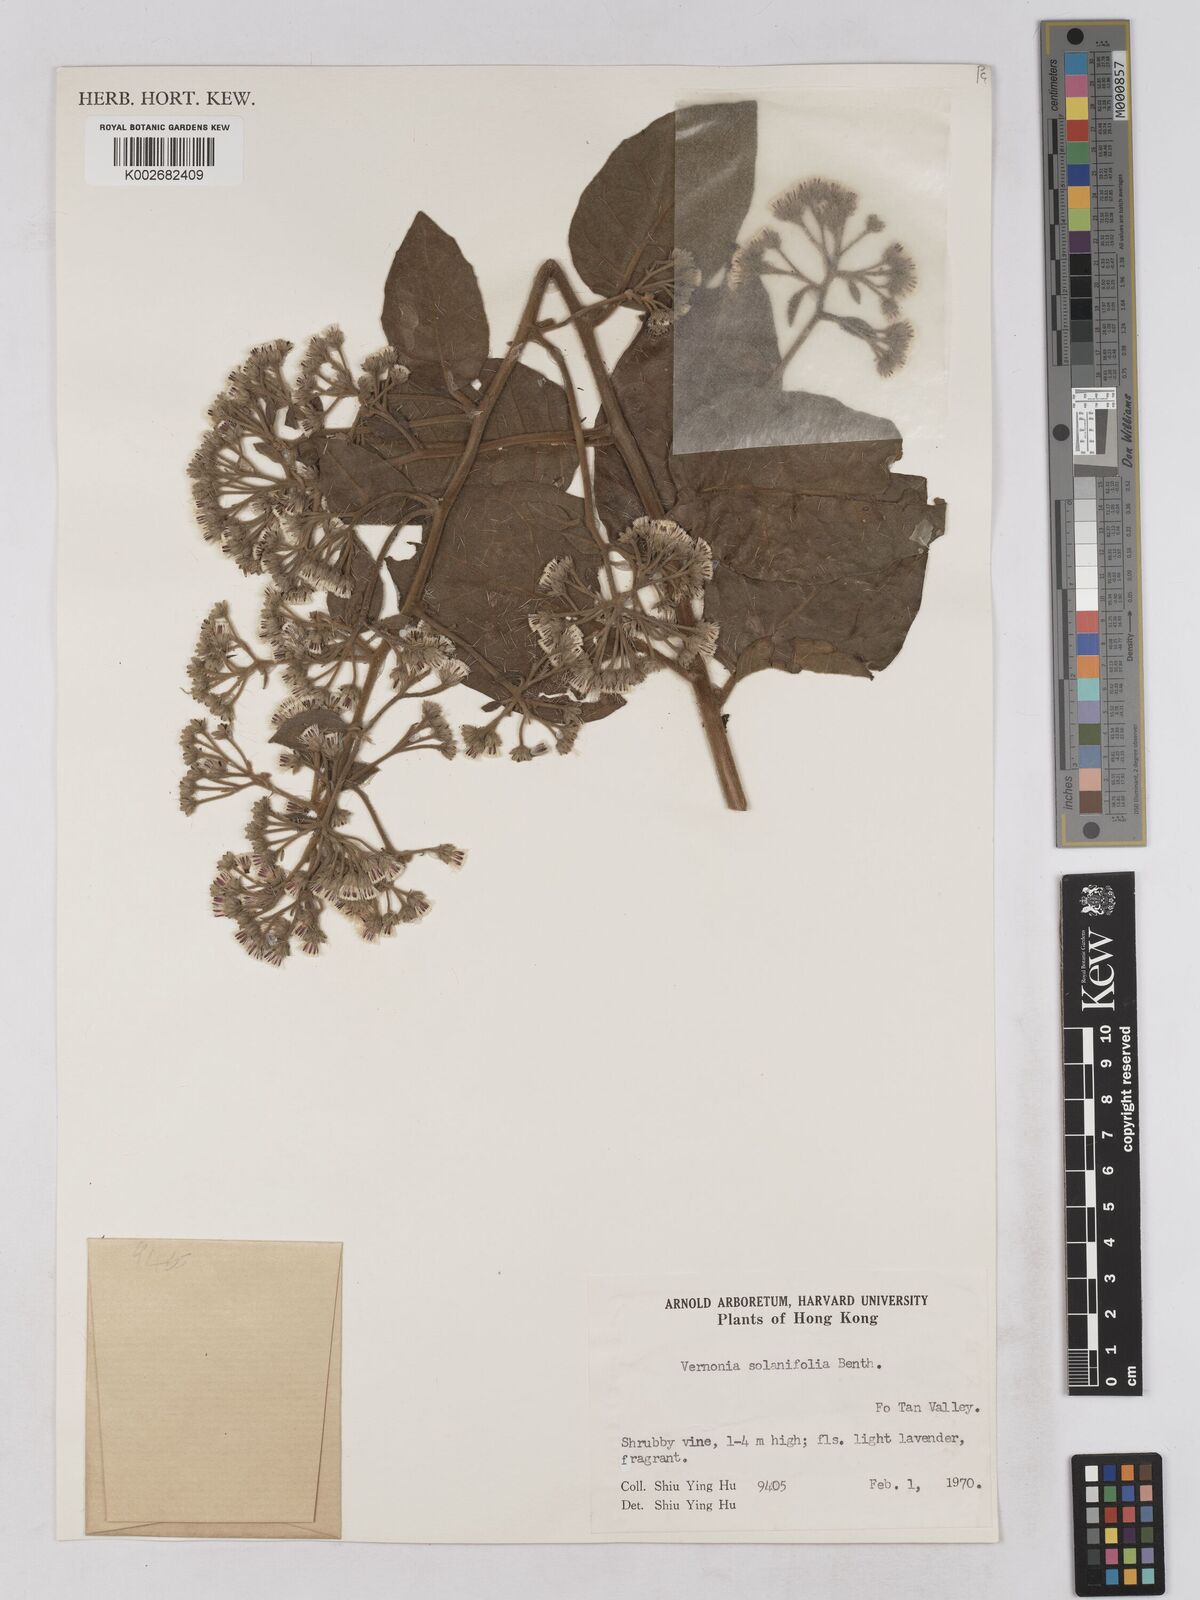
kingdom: Plantae
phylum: Tracheophyta
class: Magnoliopsida
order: Asterales
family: Asteraceae
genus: Strobocalyx
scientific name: Strobocalyx solanifolia
